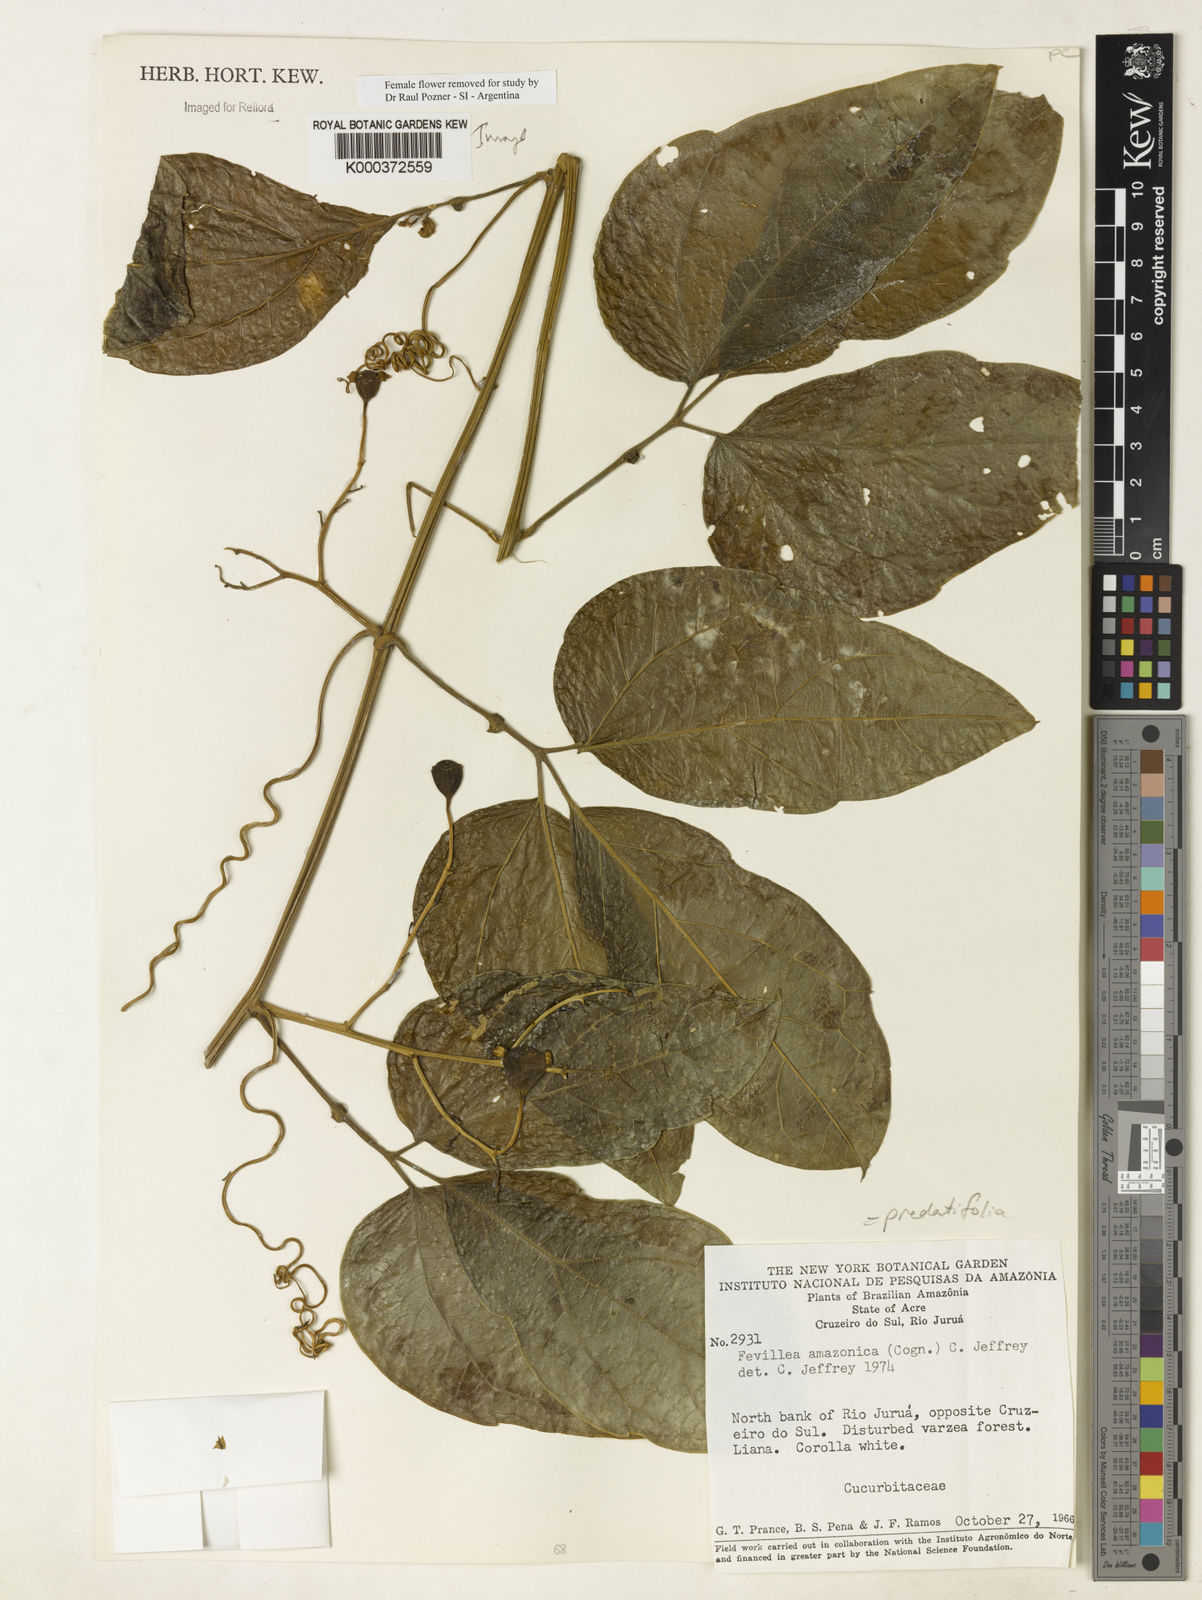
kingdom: Plantae
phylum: Tracheophyta
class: Magnoliopsida
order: Cucurbitales
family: Cucurbitaceae
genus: Fevillea
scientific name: Fevillea pedatifolia
